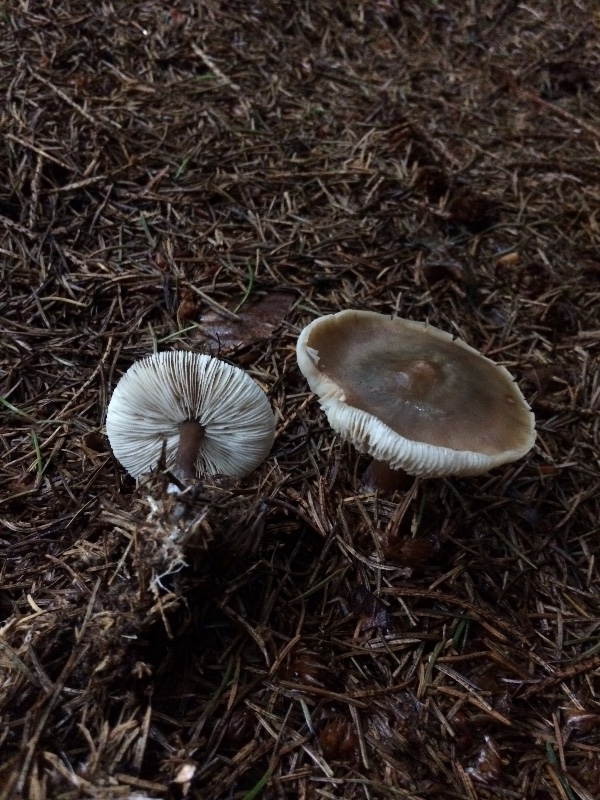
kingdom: Fungi
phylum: Basidiomycota
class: Agaricomycetes
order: Agaricales
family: Omphalotaceae
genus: Rhodocollybia
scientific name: Rhodocollybia asema
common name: horngrå fladhat
